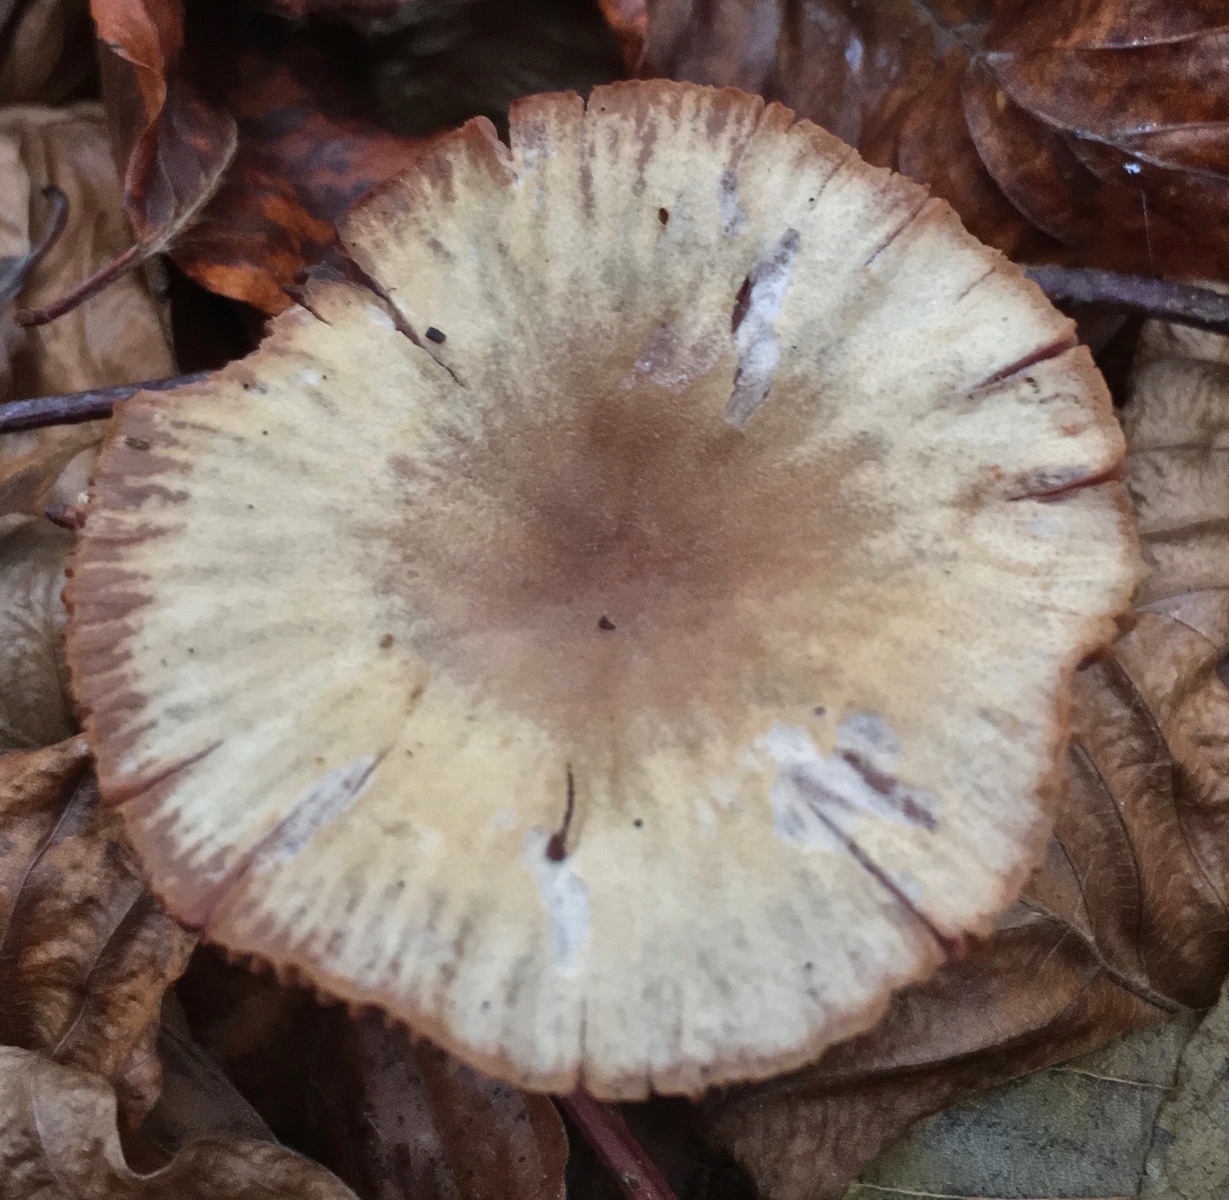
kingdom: Fungi
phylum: Basidiomycota
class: Agaricomycetes
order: Agaricales
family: Hydnangiaceae
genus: Laccaria
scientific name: Laccaria amethystina
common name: violet ametysthat
